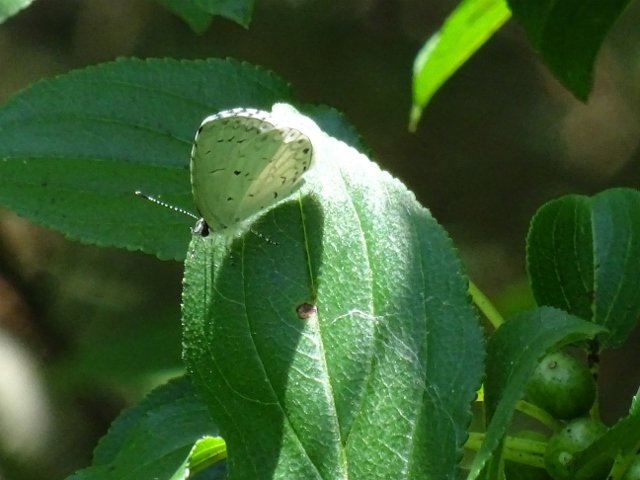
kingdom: Animalia
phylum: Arthropoda
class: Insecta
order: Lepidoptera
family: Lycaenidae
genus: Celastrina
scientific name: Celastrina
